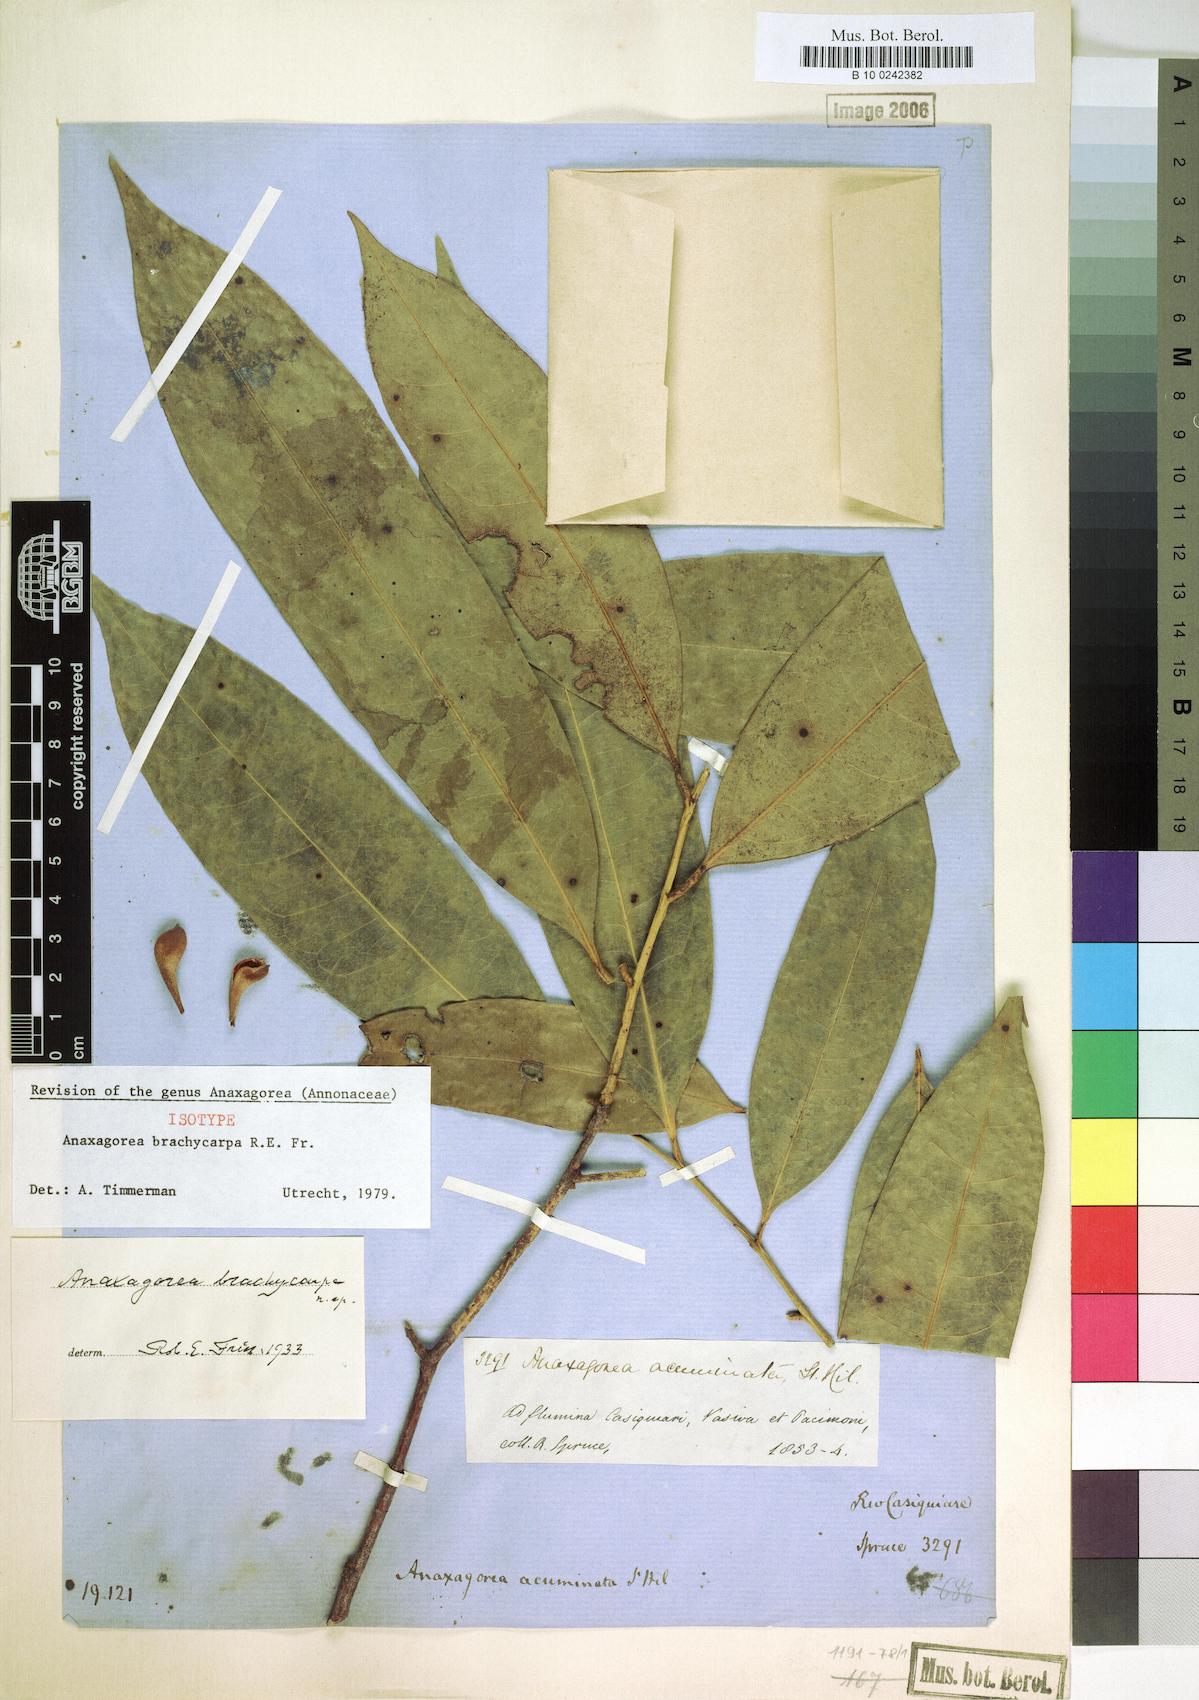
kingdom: Plantae
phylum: Tracheophyta
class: Magnoliopsida
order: Magnoliales
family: Annonaceae
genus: Anaxagorea
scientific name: Anaxagorea brachycarpa
